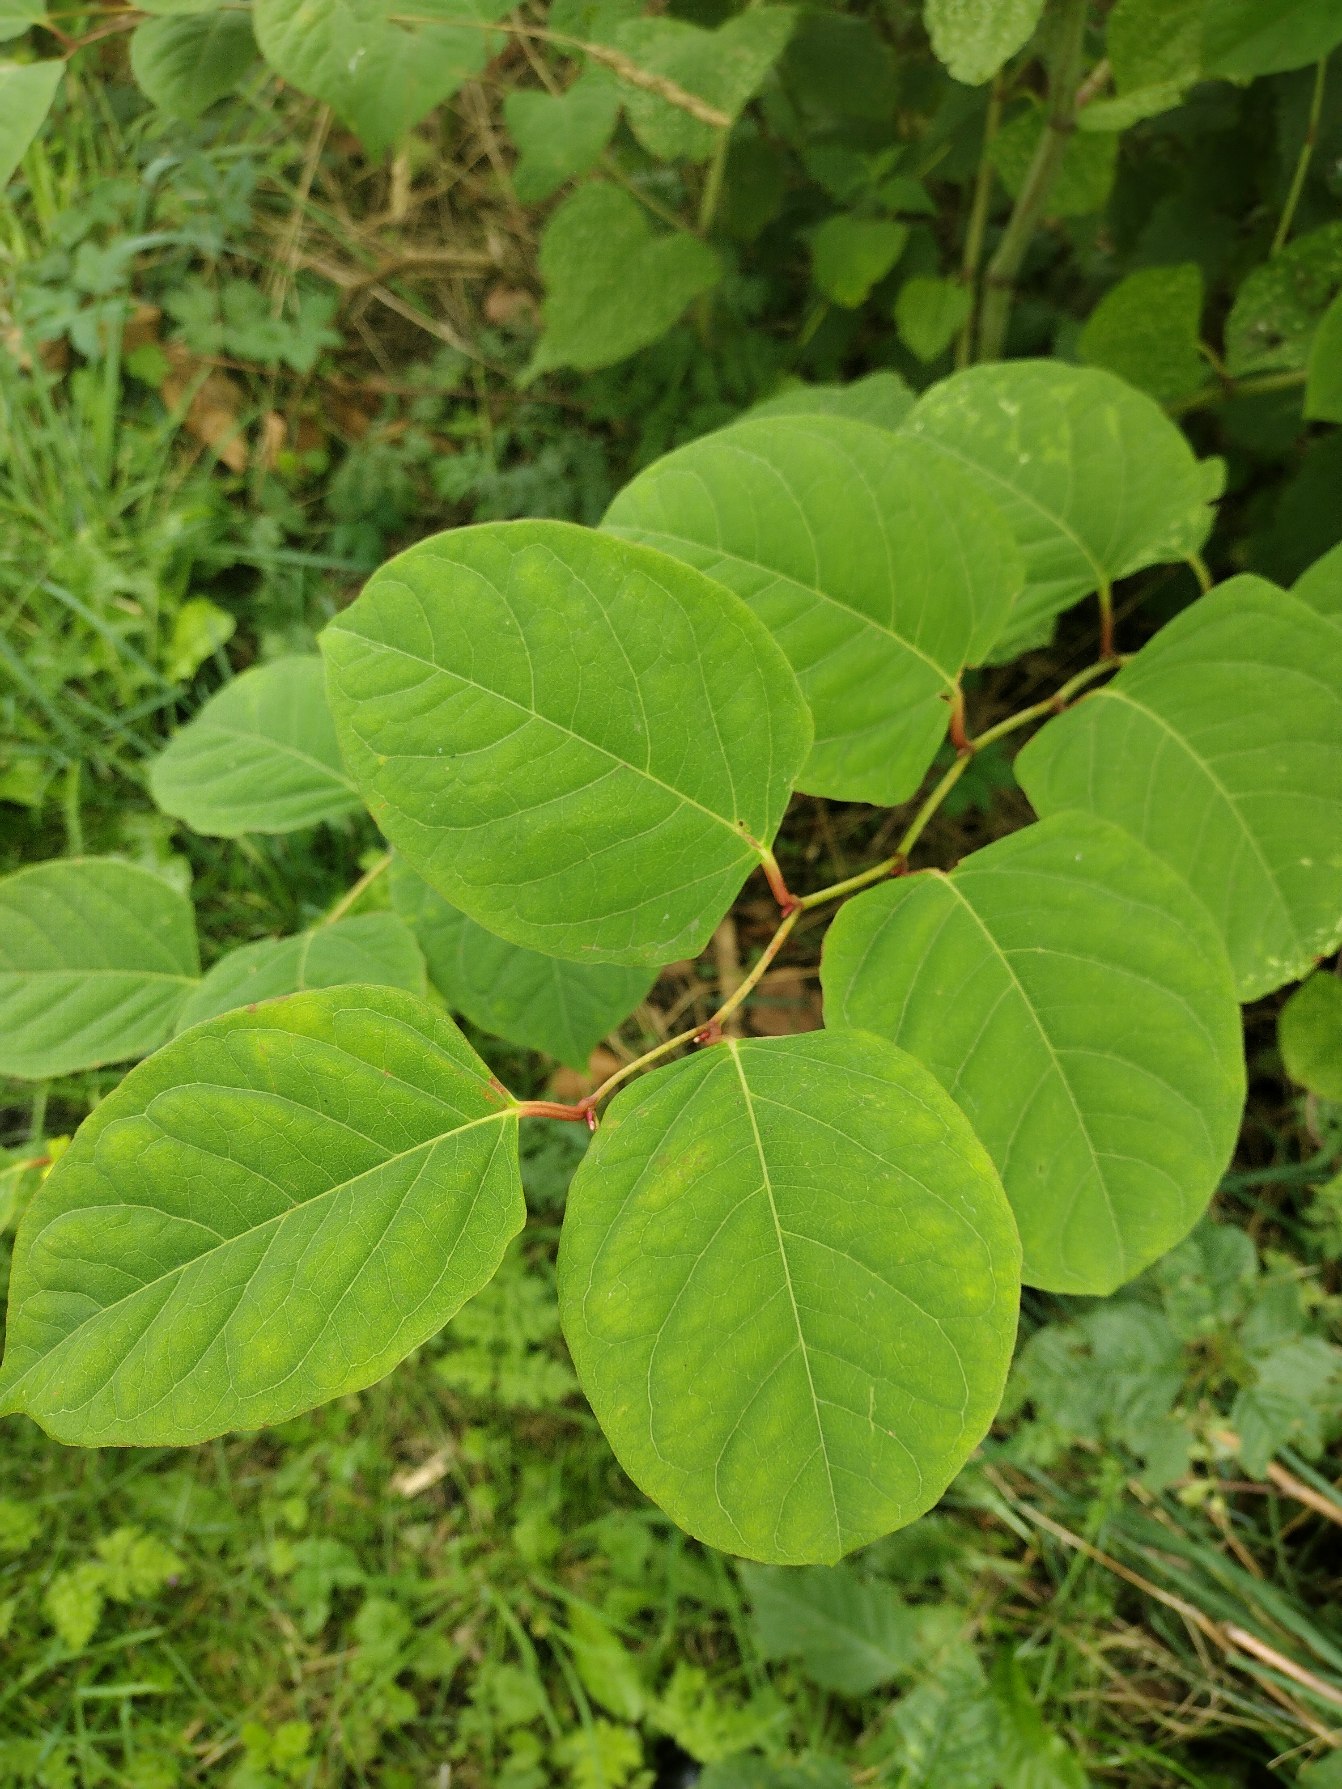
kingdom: Plantae
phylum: Tracheophyta
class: Magnoliopsida
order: Caryophyllales
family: Polygonaceae
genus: Reynoutria
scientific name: Reynoutria japonica
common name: Japan-pileurt
